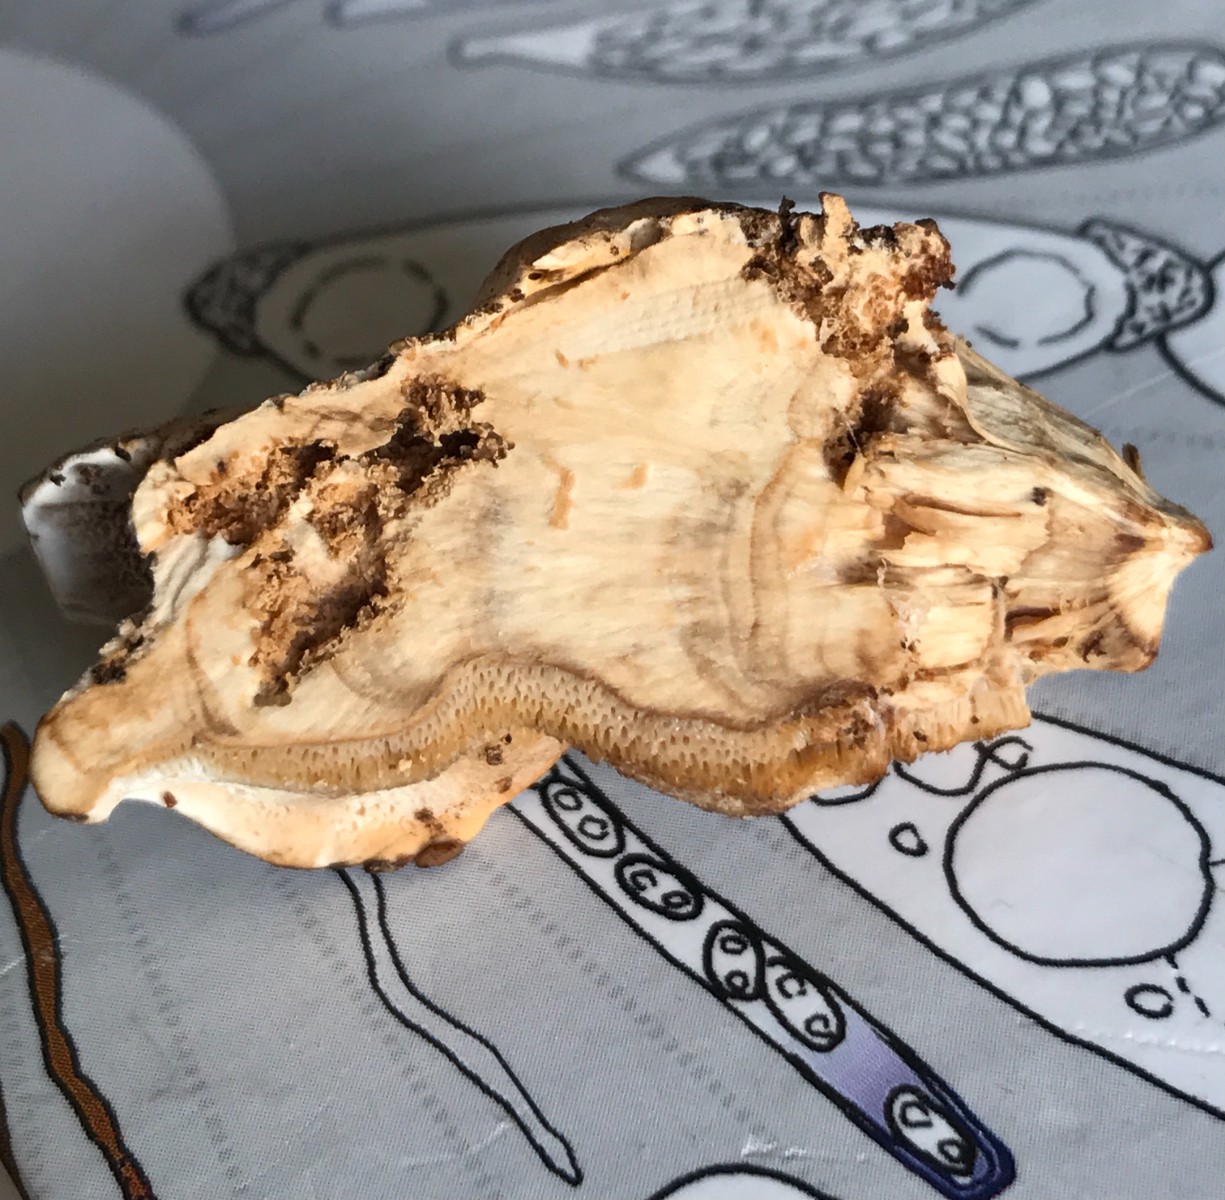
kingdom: Fungi
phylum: Basidiomycota
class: Agaricomycetes
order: Polyporales
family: Phanerochaetaceae
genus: Bjerkandera
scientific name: Bjerkandera fumosa
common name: grågul sodporesvamp
